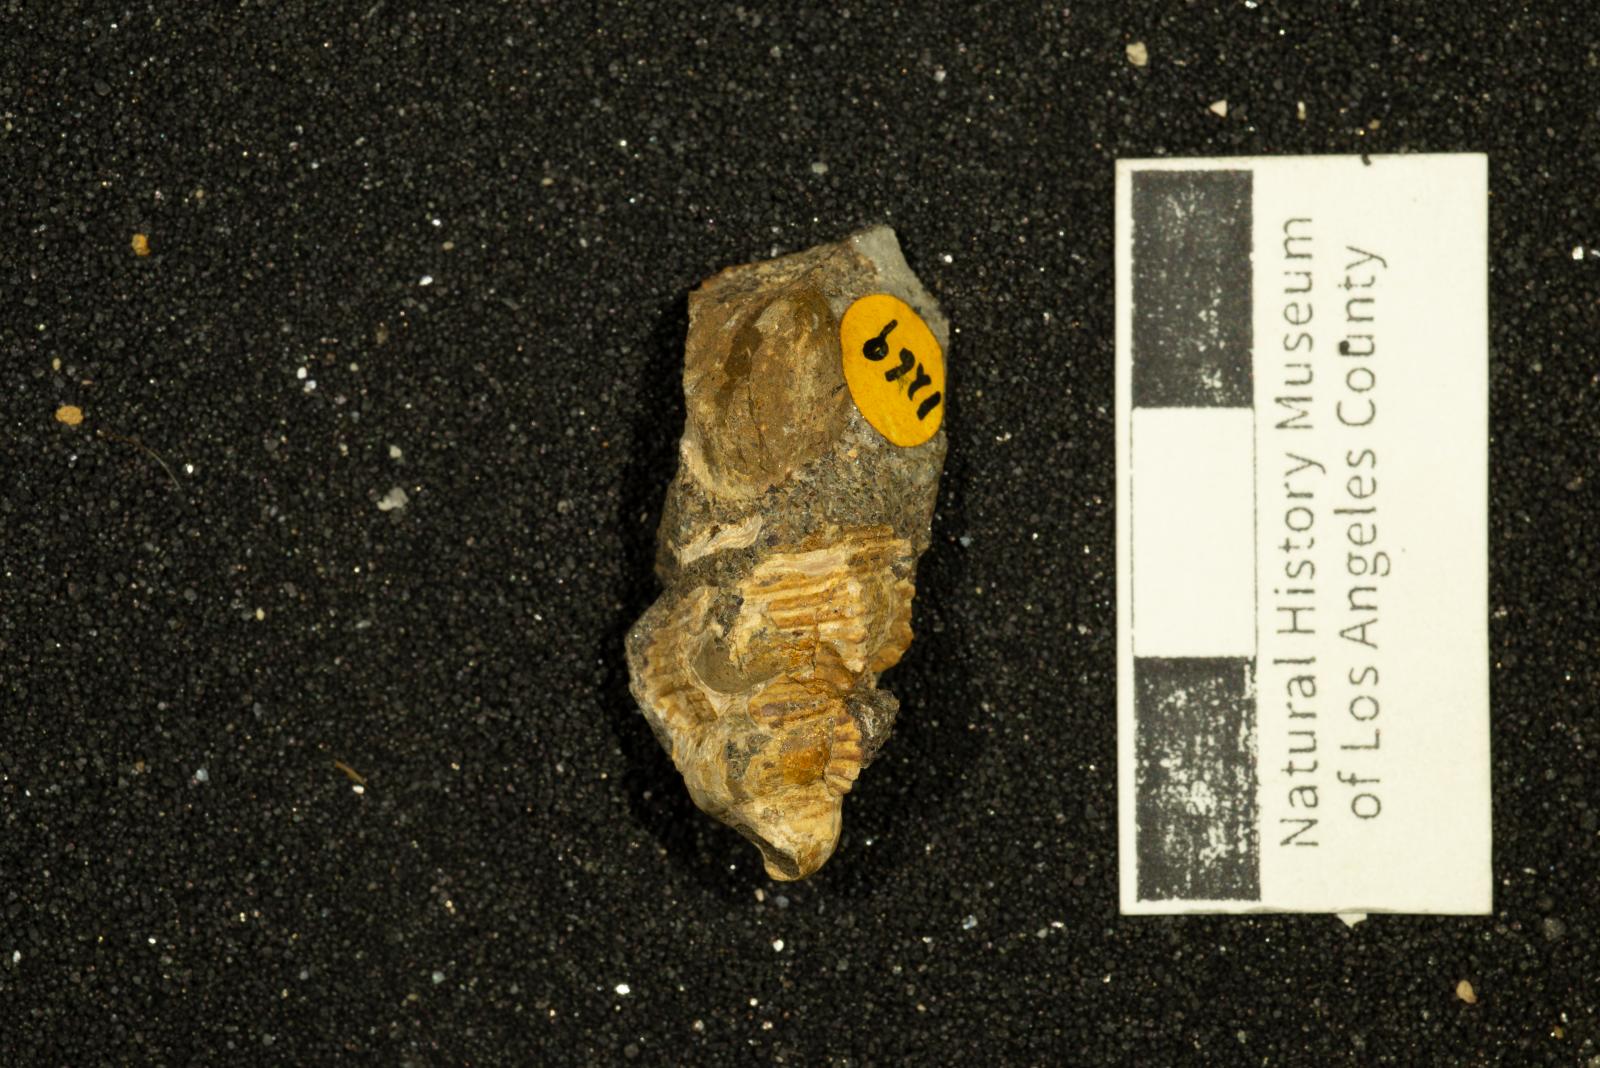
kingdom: Animalia
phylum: Mollusca
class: Gastropoda
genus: Alamirifica
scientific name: Alamirifica ursa
